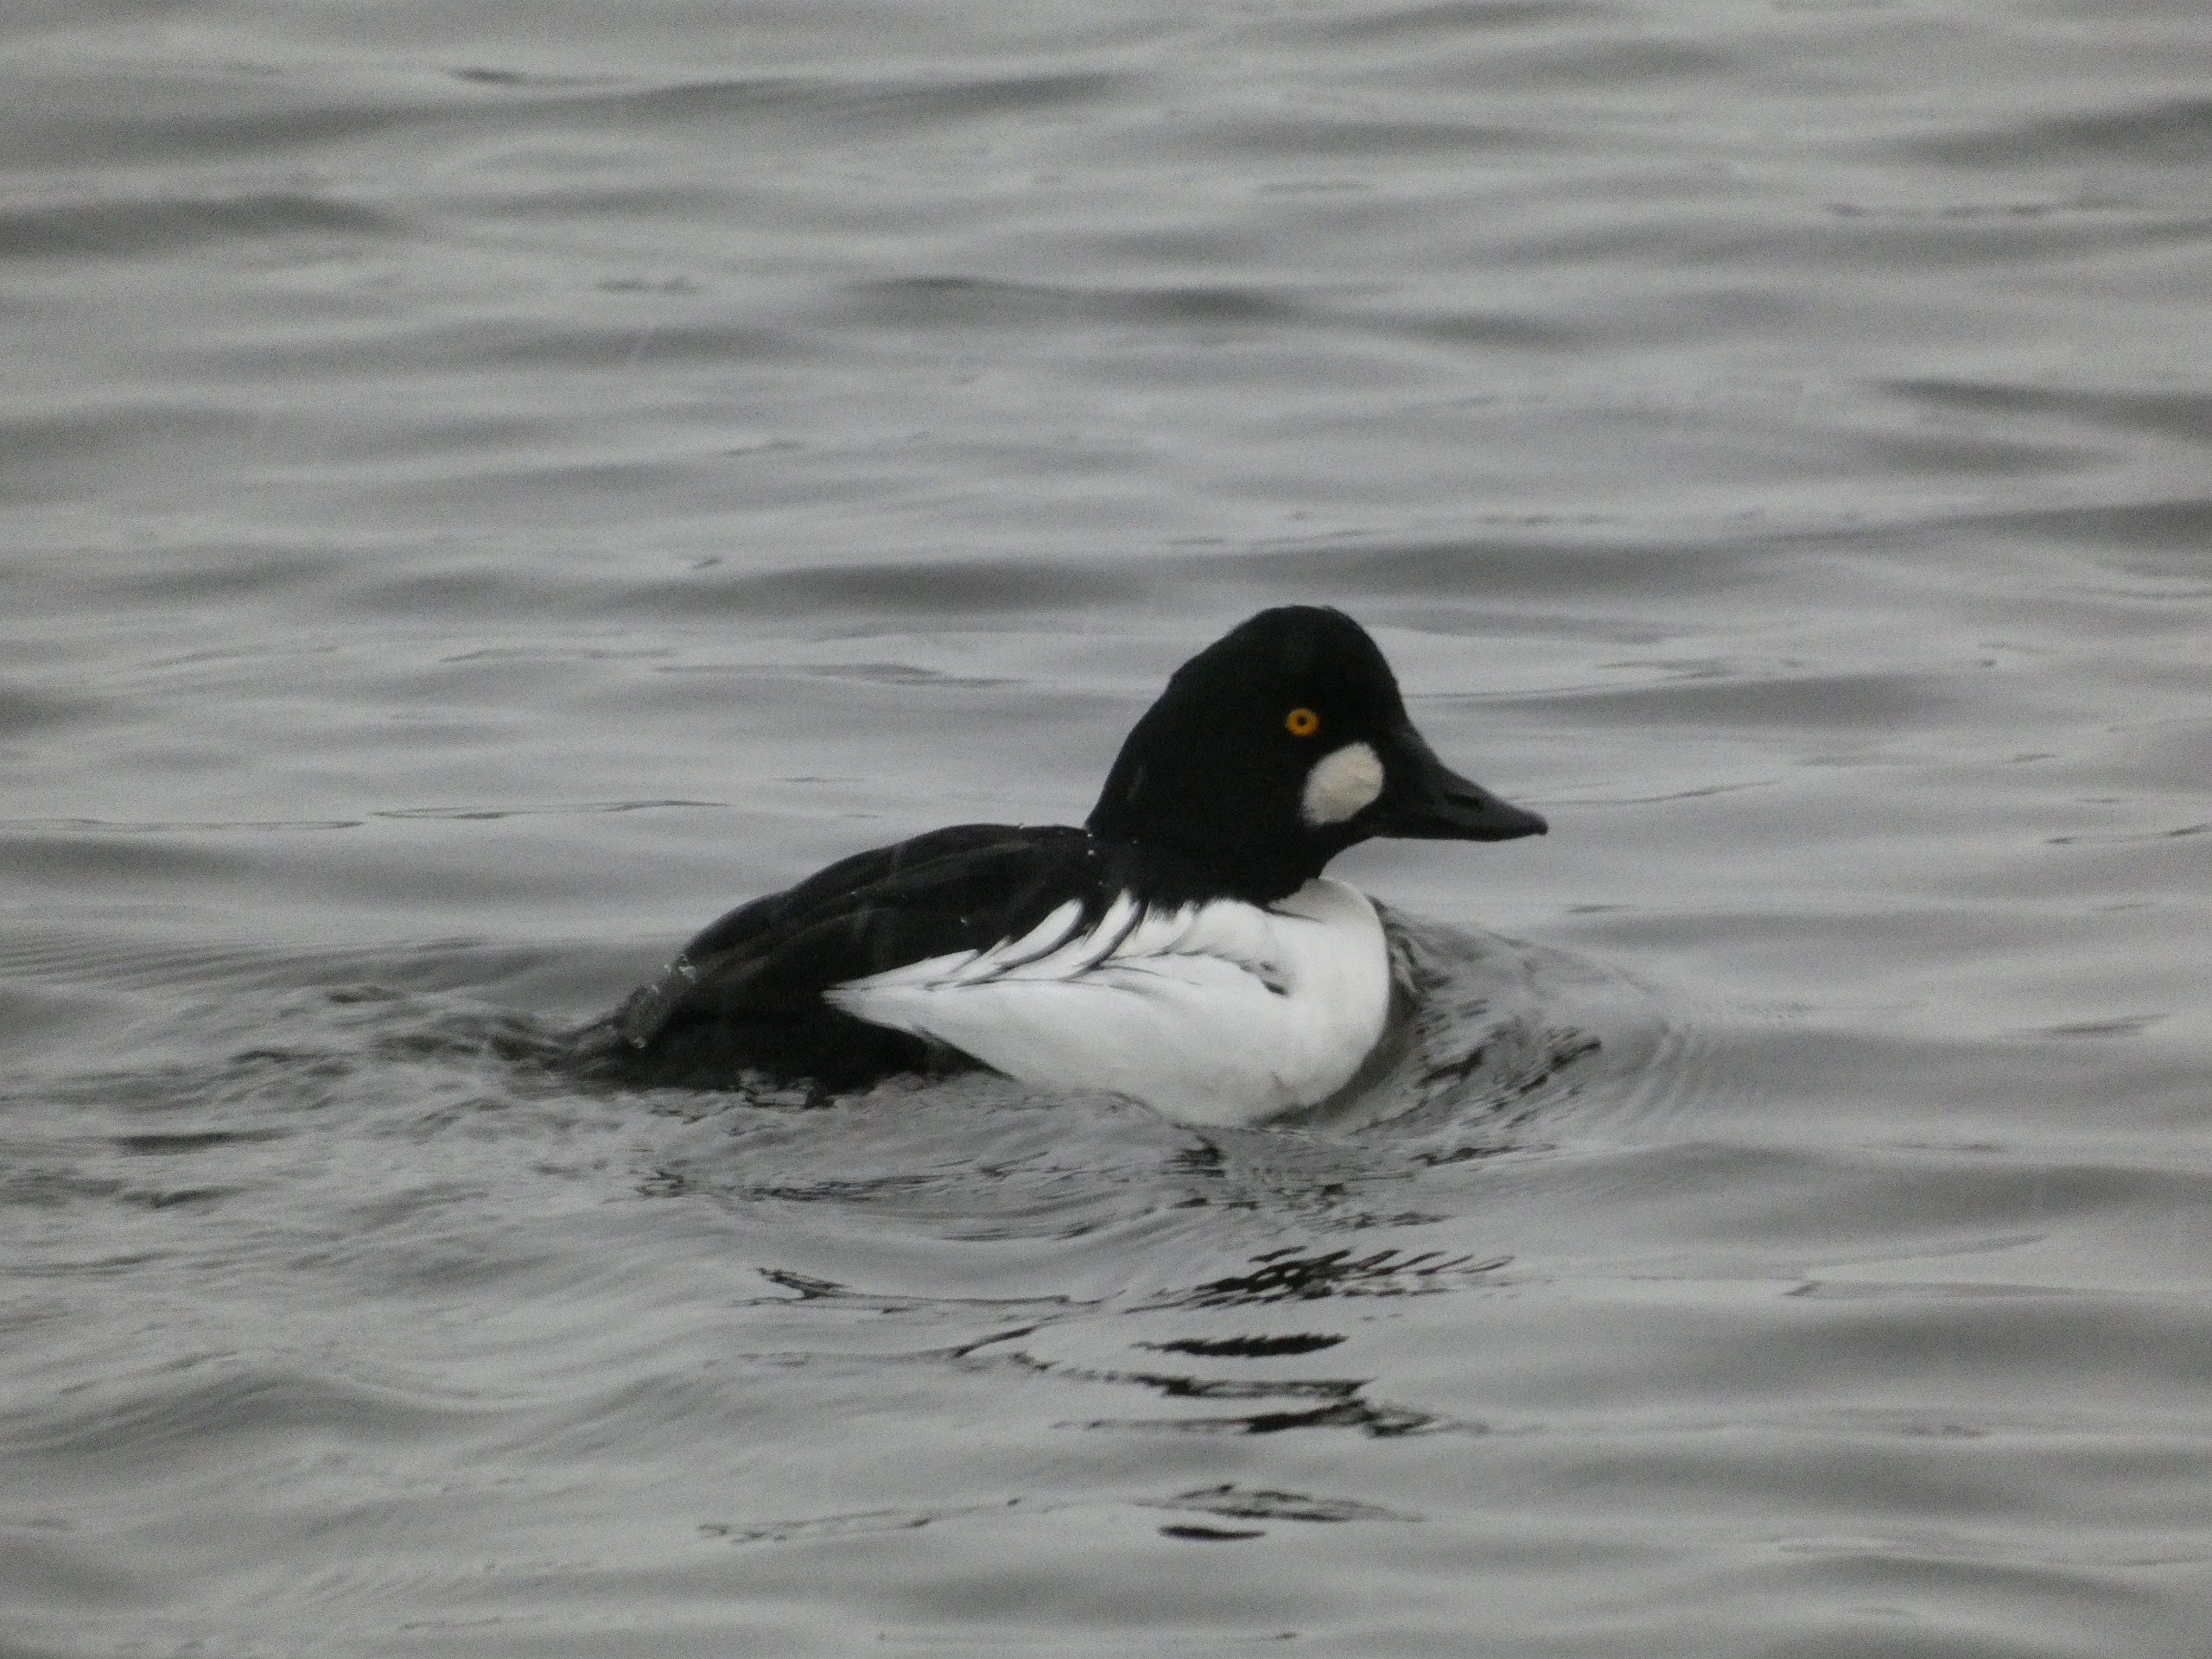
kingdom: Animalia
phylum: Chordata
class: Aves
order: Anseriformes
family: Anatidae
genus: Bucephala
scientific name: Bucephala clangula
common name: Hvinand
